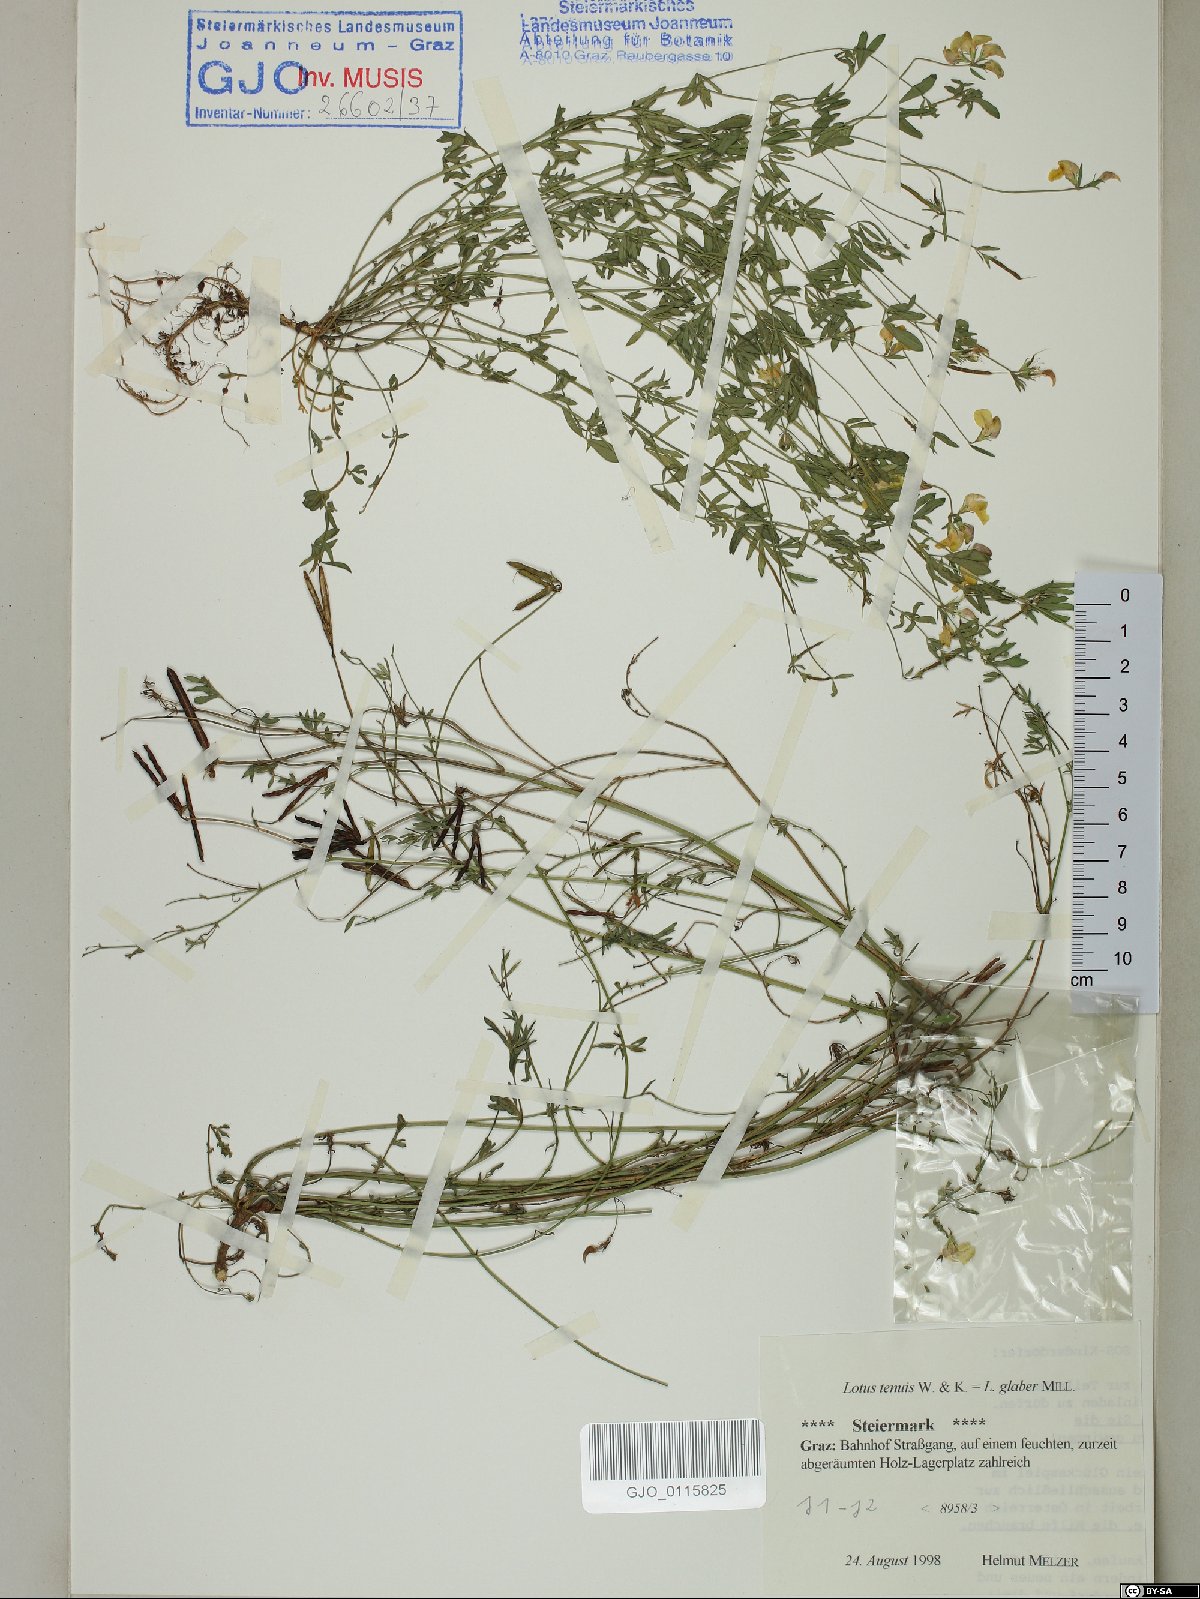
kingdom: Plantae
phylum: Tracheophyta
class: Magnoliopsida
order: Fabales
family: Fabaceae
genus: Lotus
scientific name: Lotus tenuis
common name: Narrow-leaved bird's-foot-trefoil
